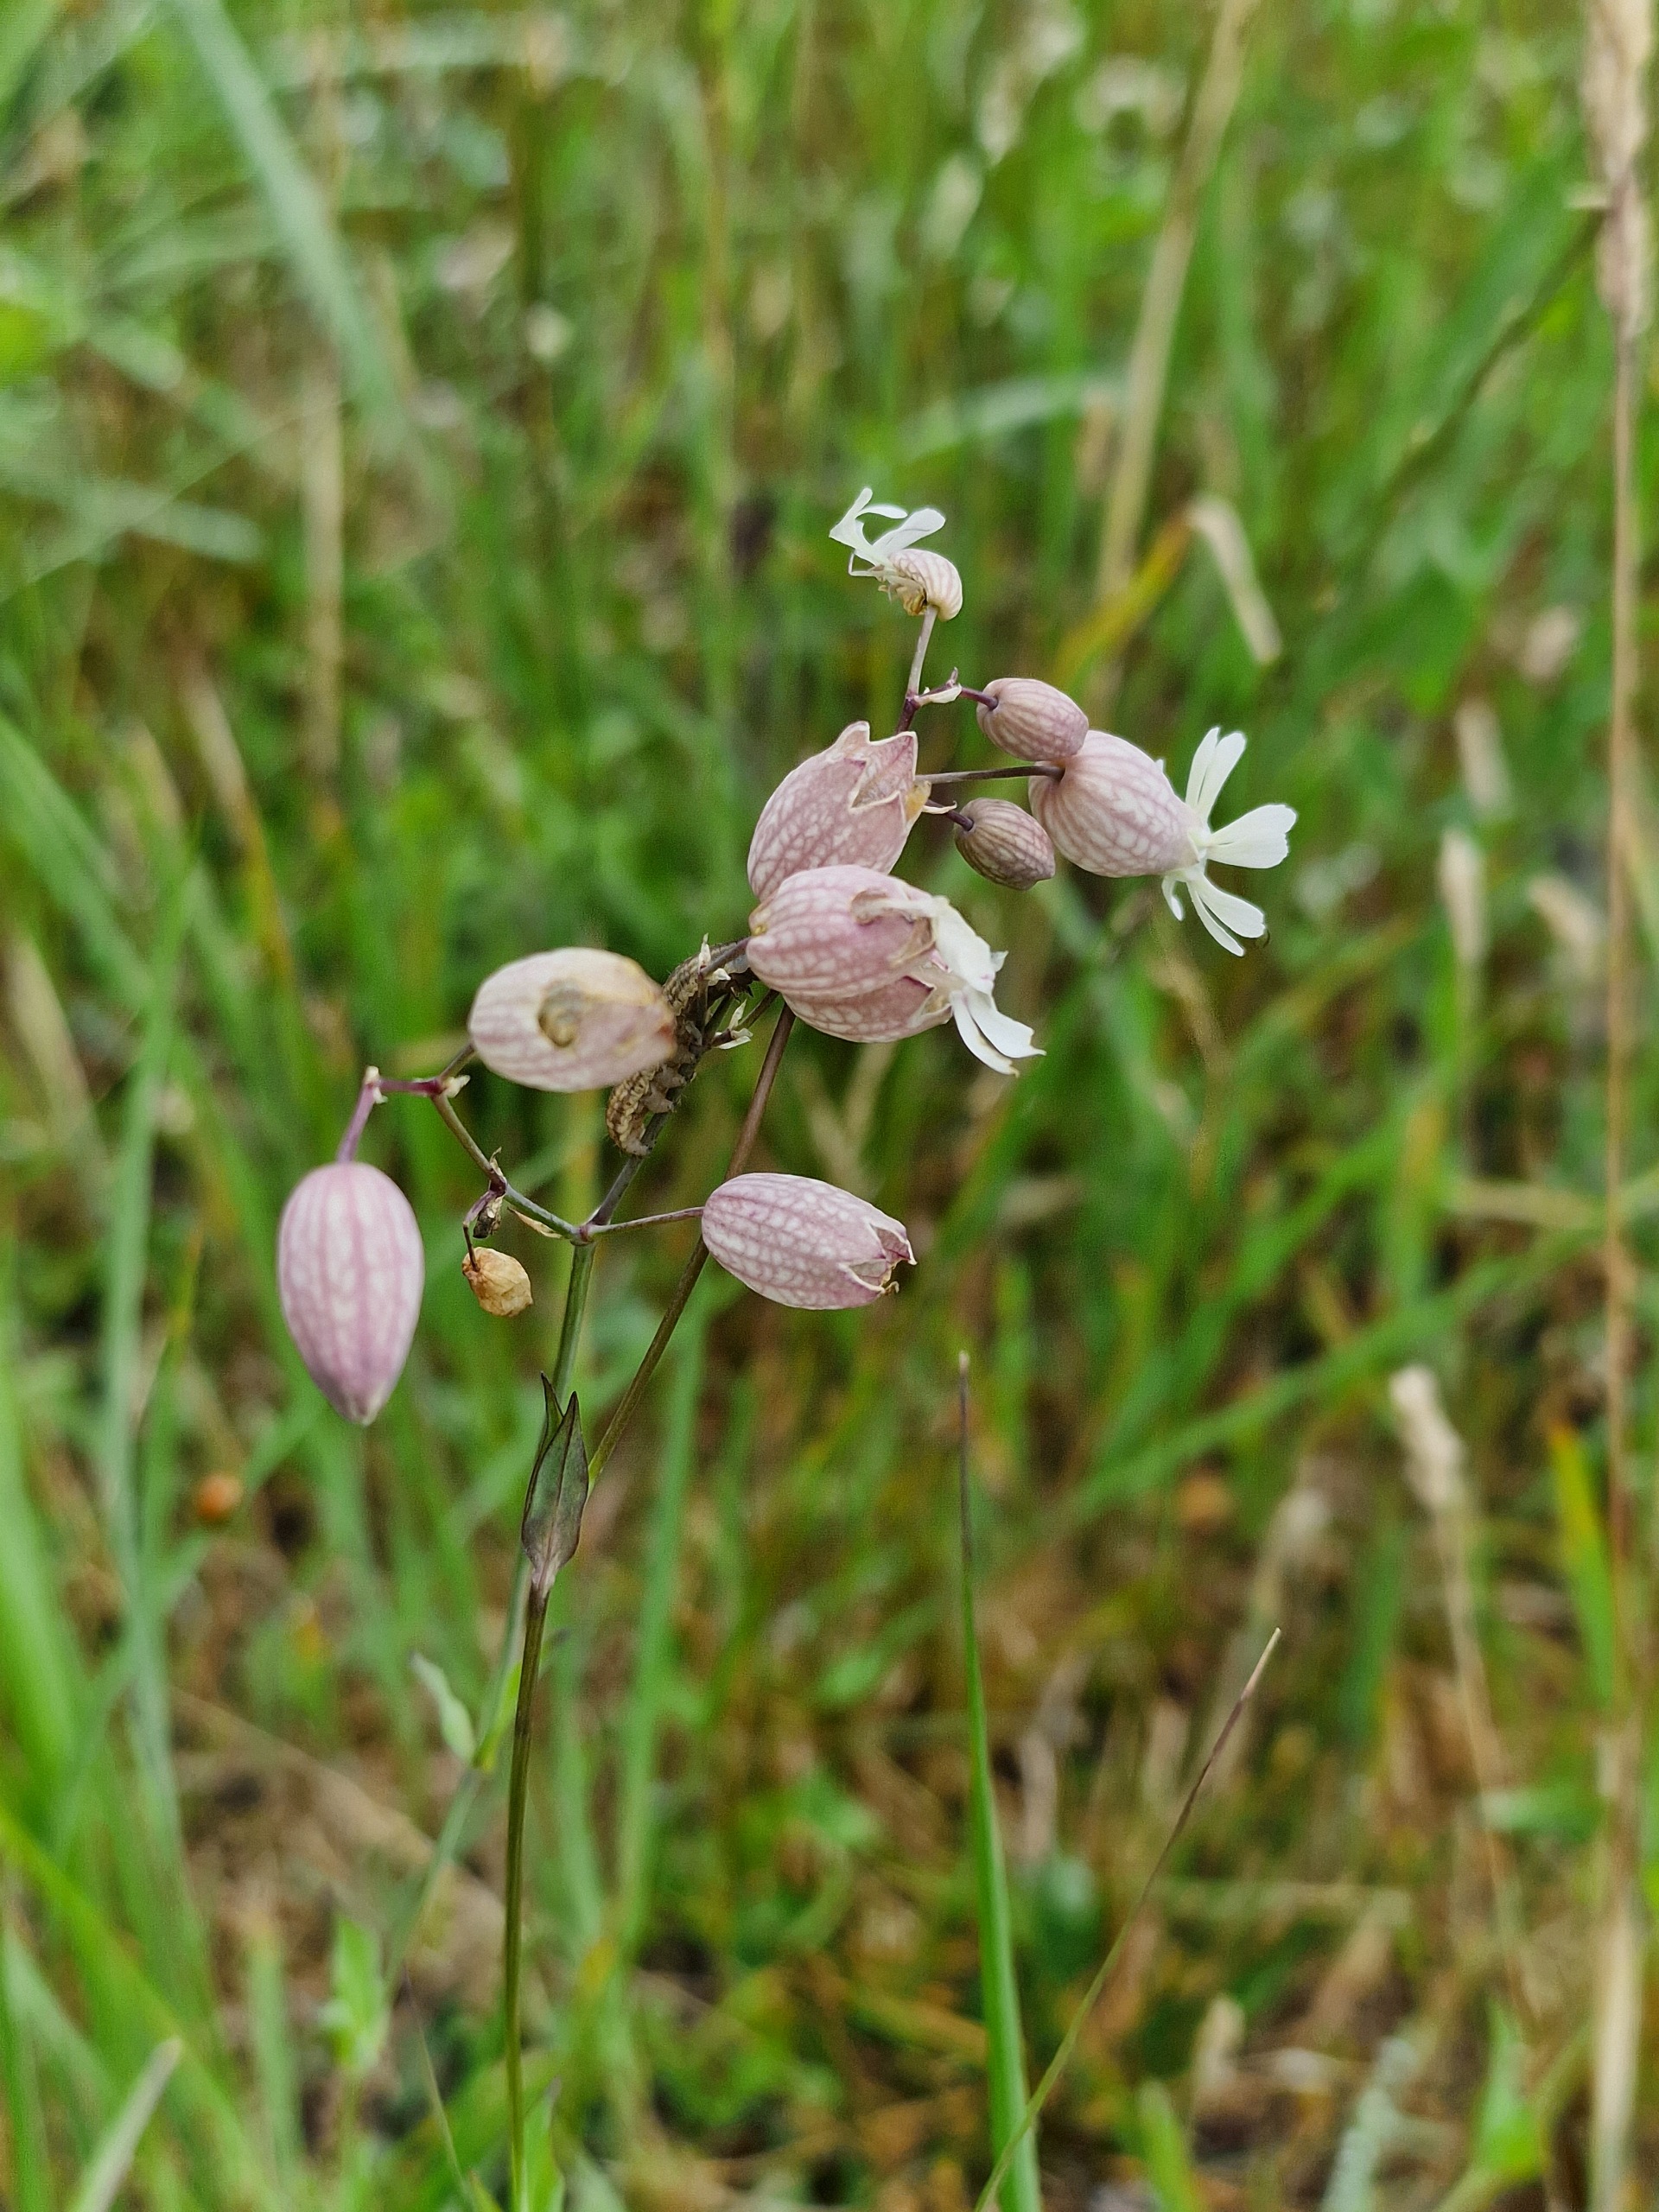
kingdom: Plantae
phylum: Tracheophyta
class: Magnoliopsida
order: Caryophyllales
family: Caryophyllaceae
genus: Silene
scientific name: Silene vulgaris
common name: Blæresmælde
